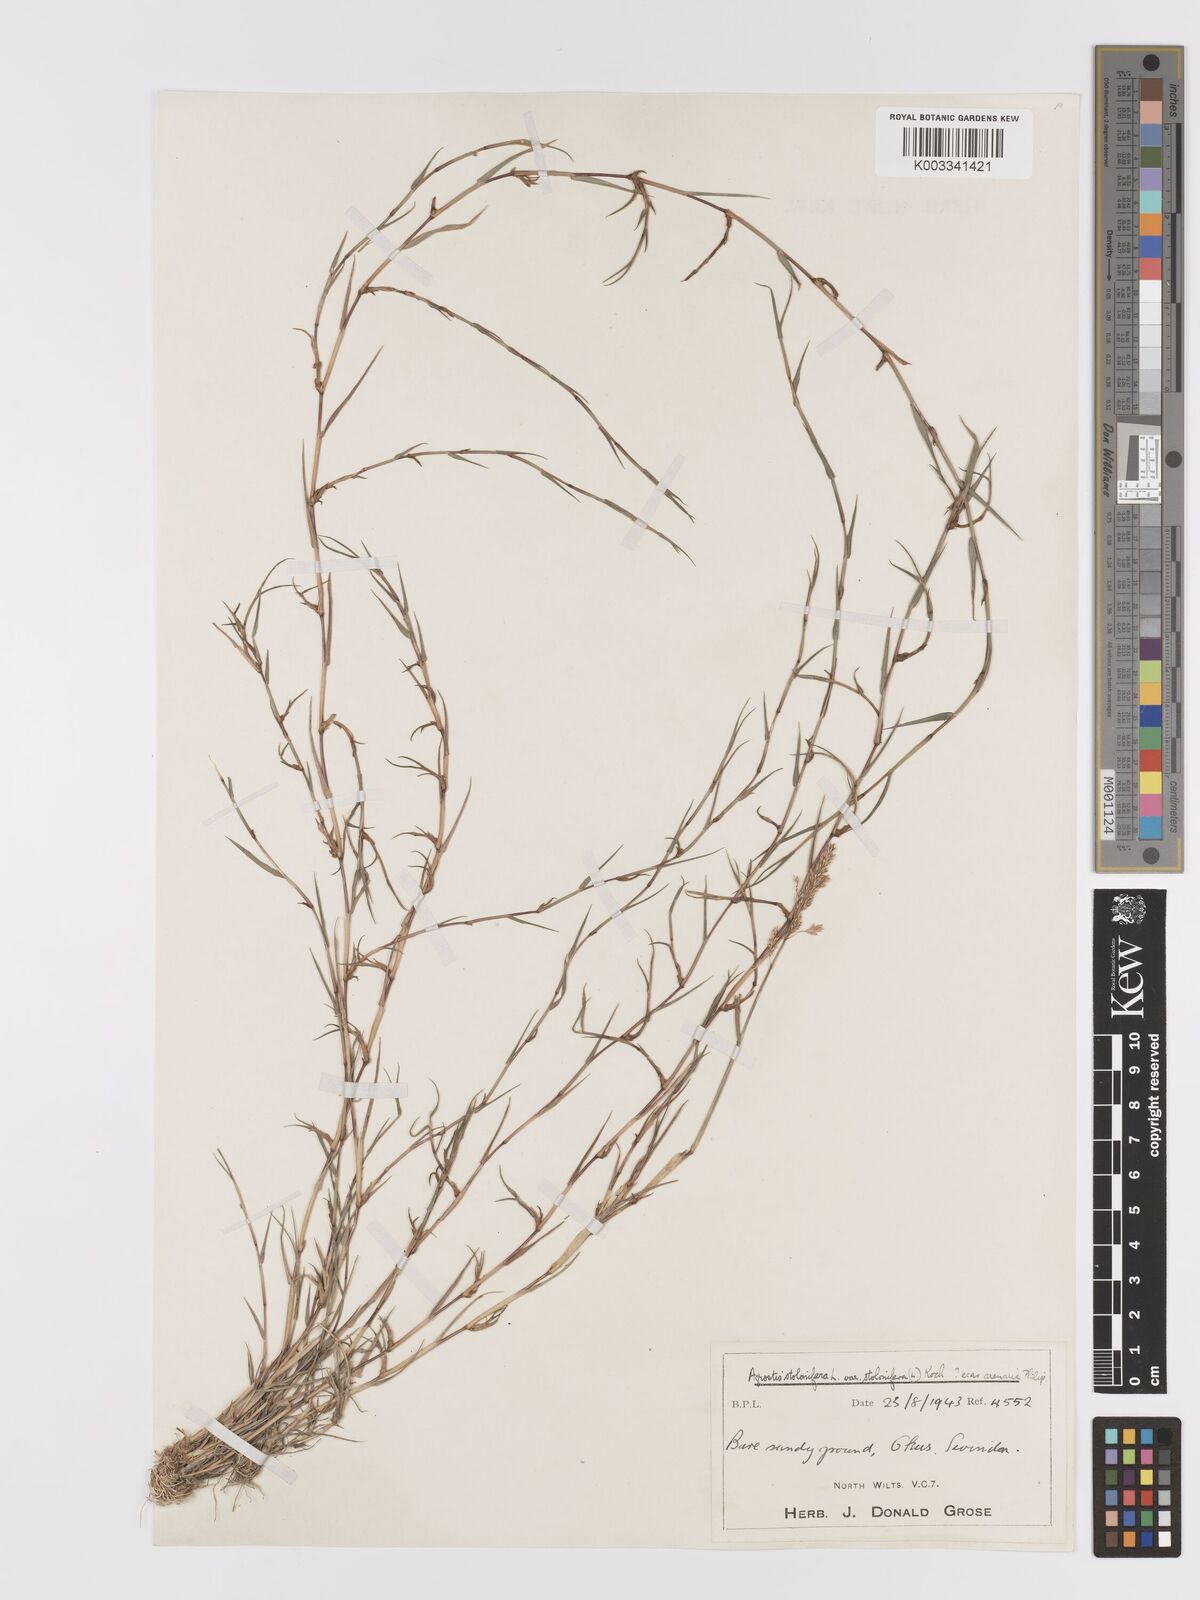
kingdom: Plantae
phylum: Tracheophyta
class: Liliopsida
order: Poales
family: Poaceae
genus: Agrostis
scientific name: Agrostis stolonifera
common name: Creeping bentgrass
